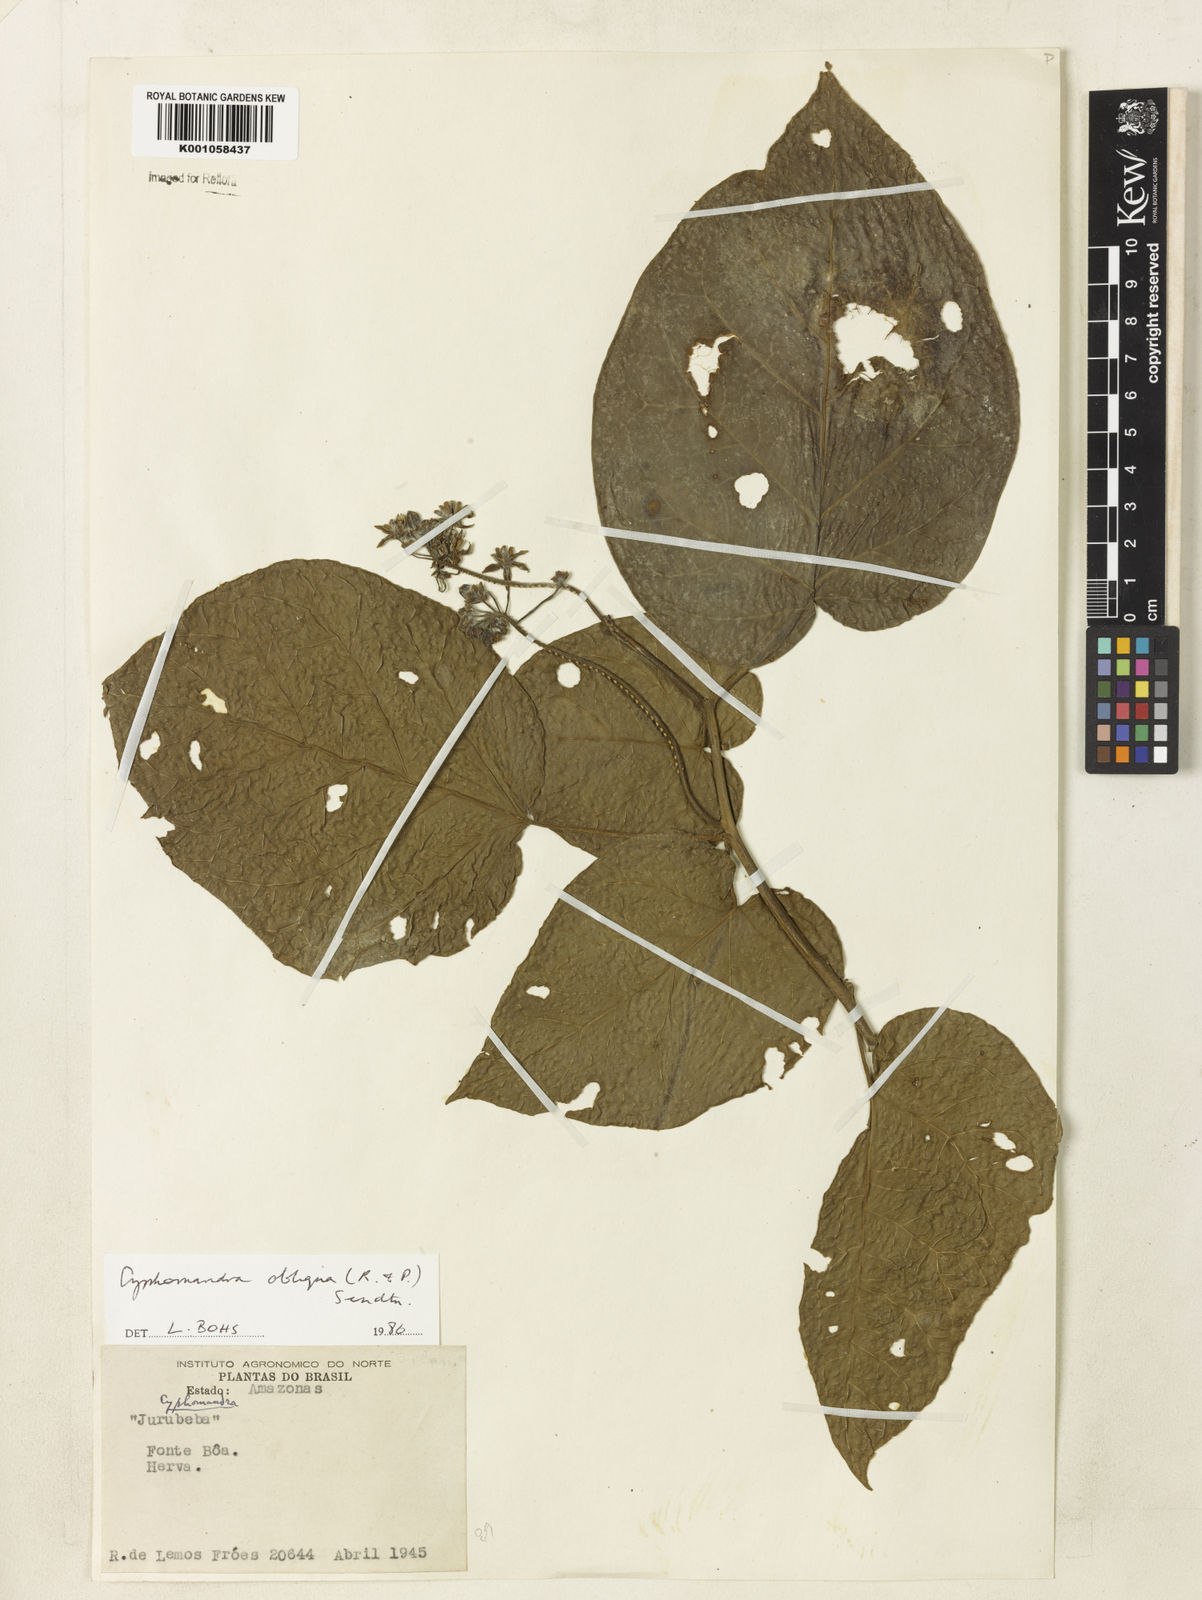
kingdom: Plantae
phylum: Tracheophyta
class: Magnoliopsida
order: Solanales
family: Solanaceae
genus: Solanum
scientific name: Solanum obliquum
